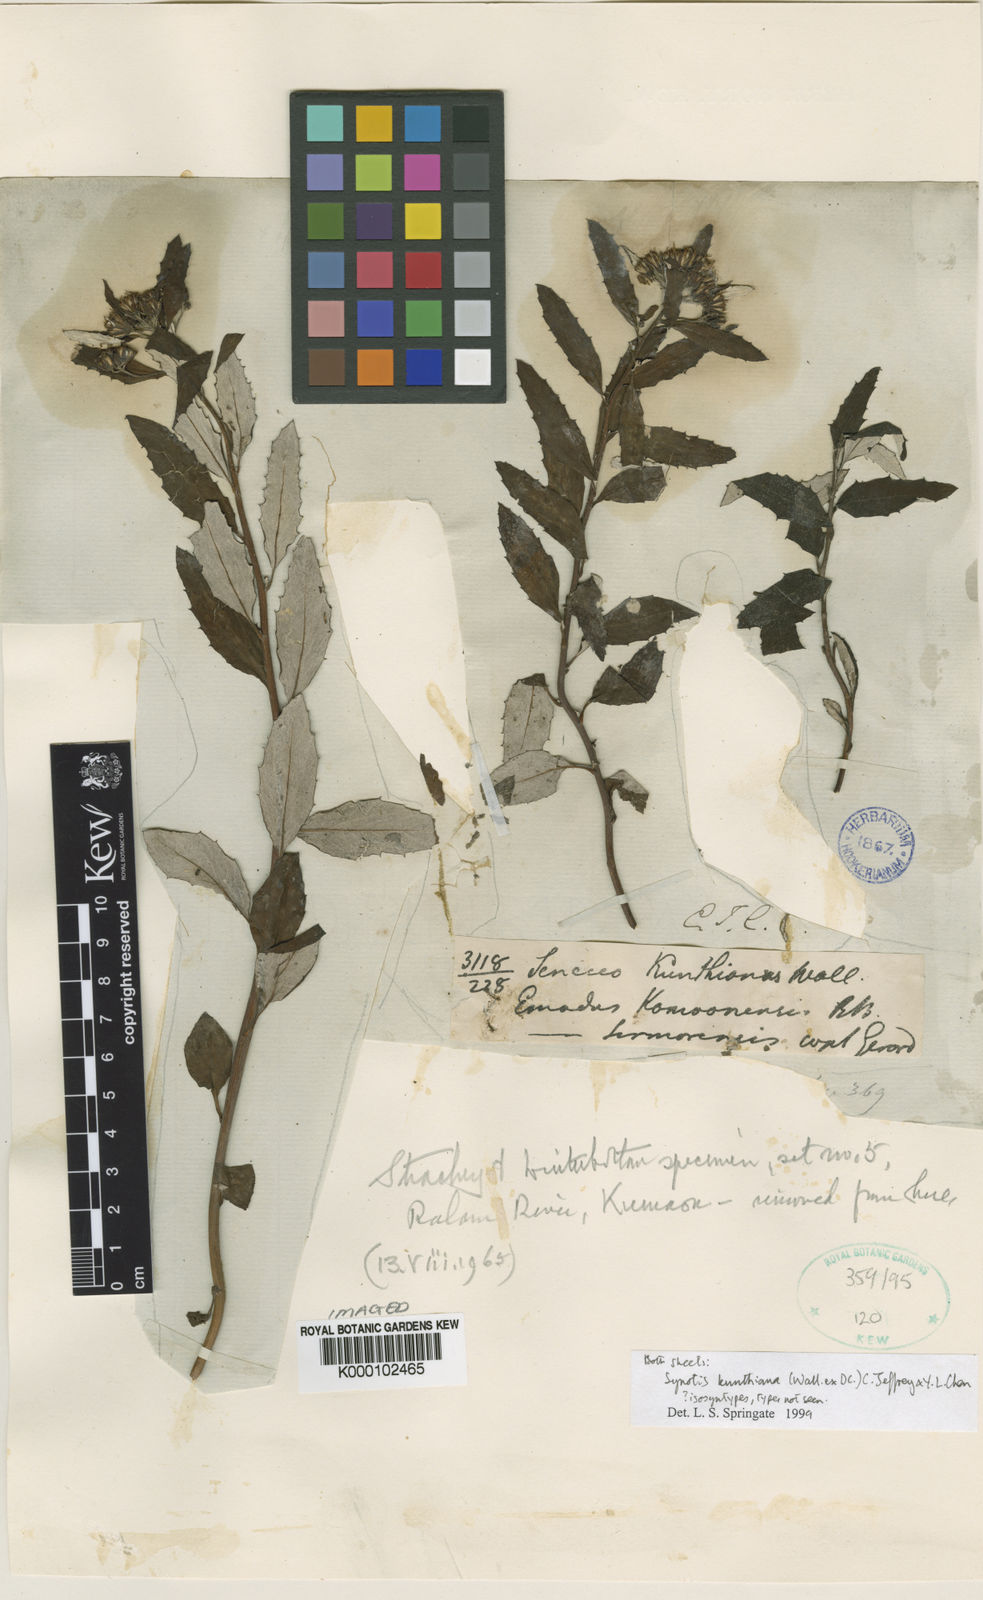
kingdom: Plantae
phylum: Tracheophyta
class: Magnoliopsida
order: Asterales
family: Asteraceae
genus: Synotis
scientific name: Synotis kunthiana
